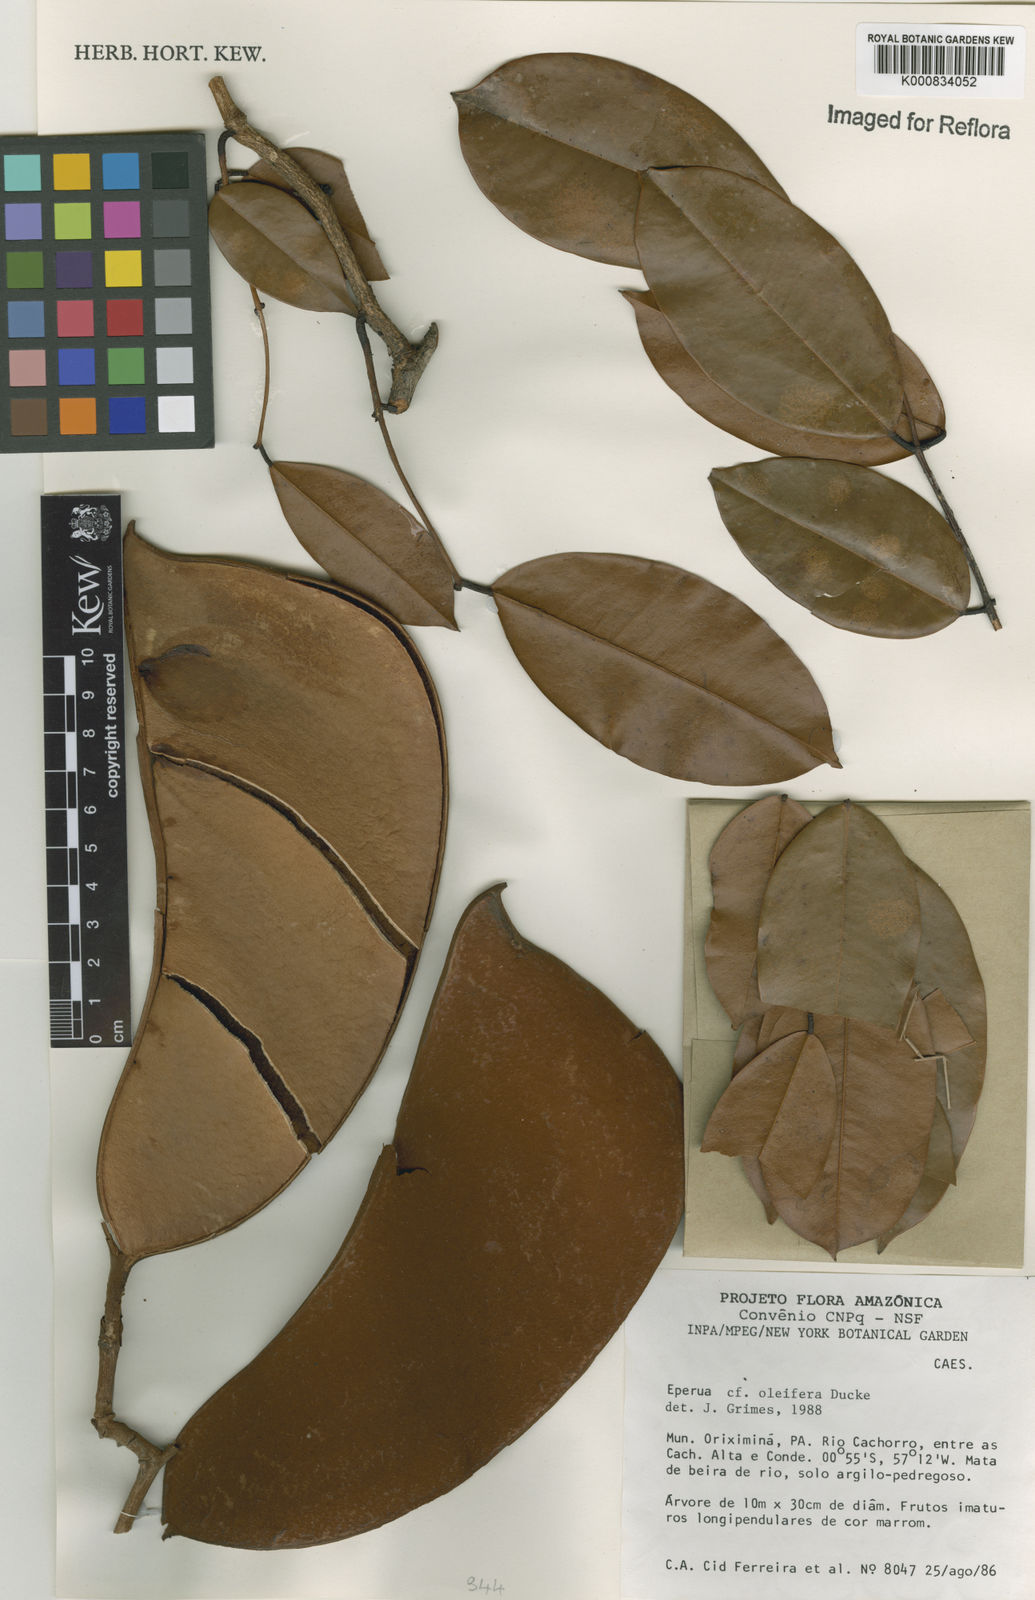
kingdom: Plantae
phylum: Tracheophyta
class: Magnoliopsida
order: Fabales
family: Fabaceae
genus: Eperua
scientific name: Eperua oleifera
